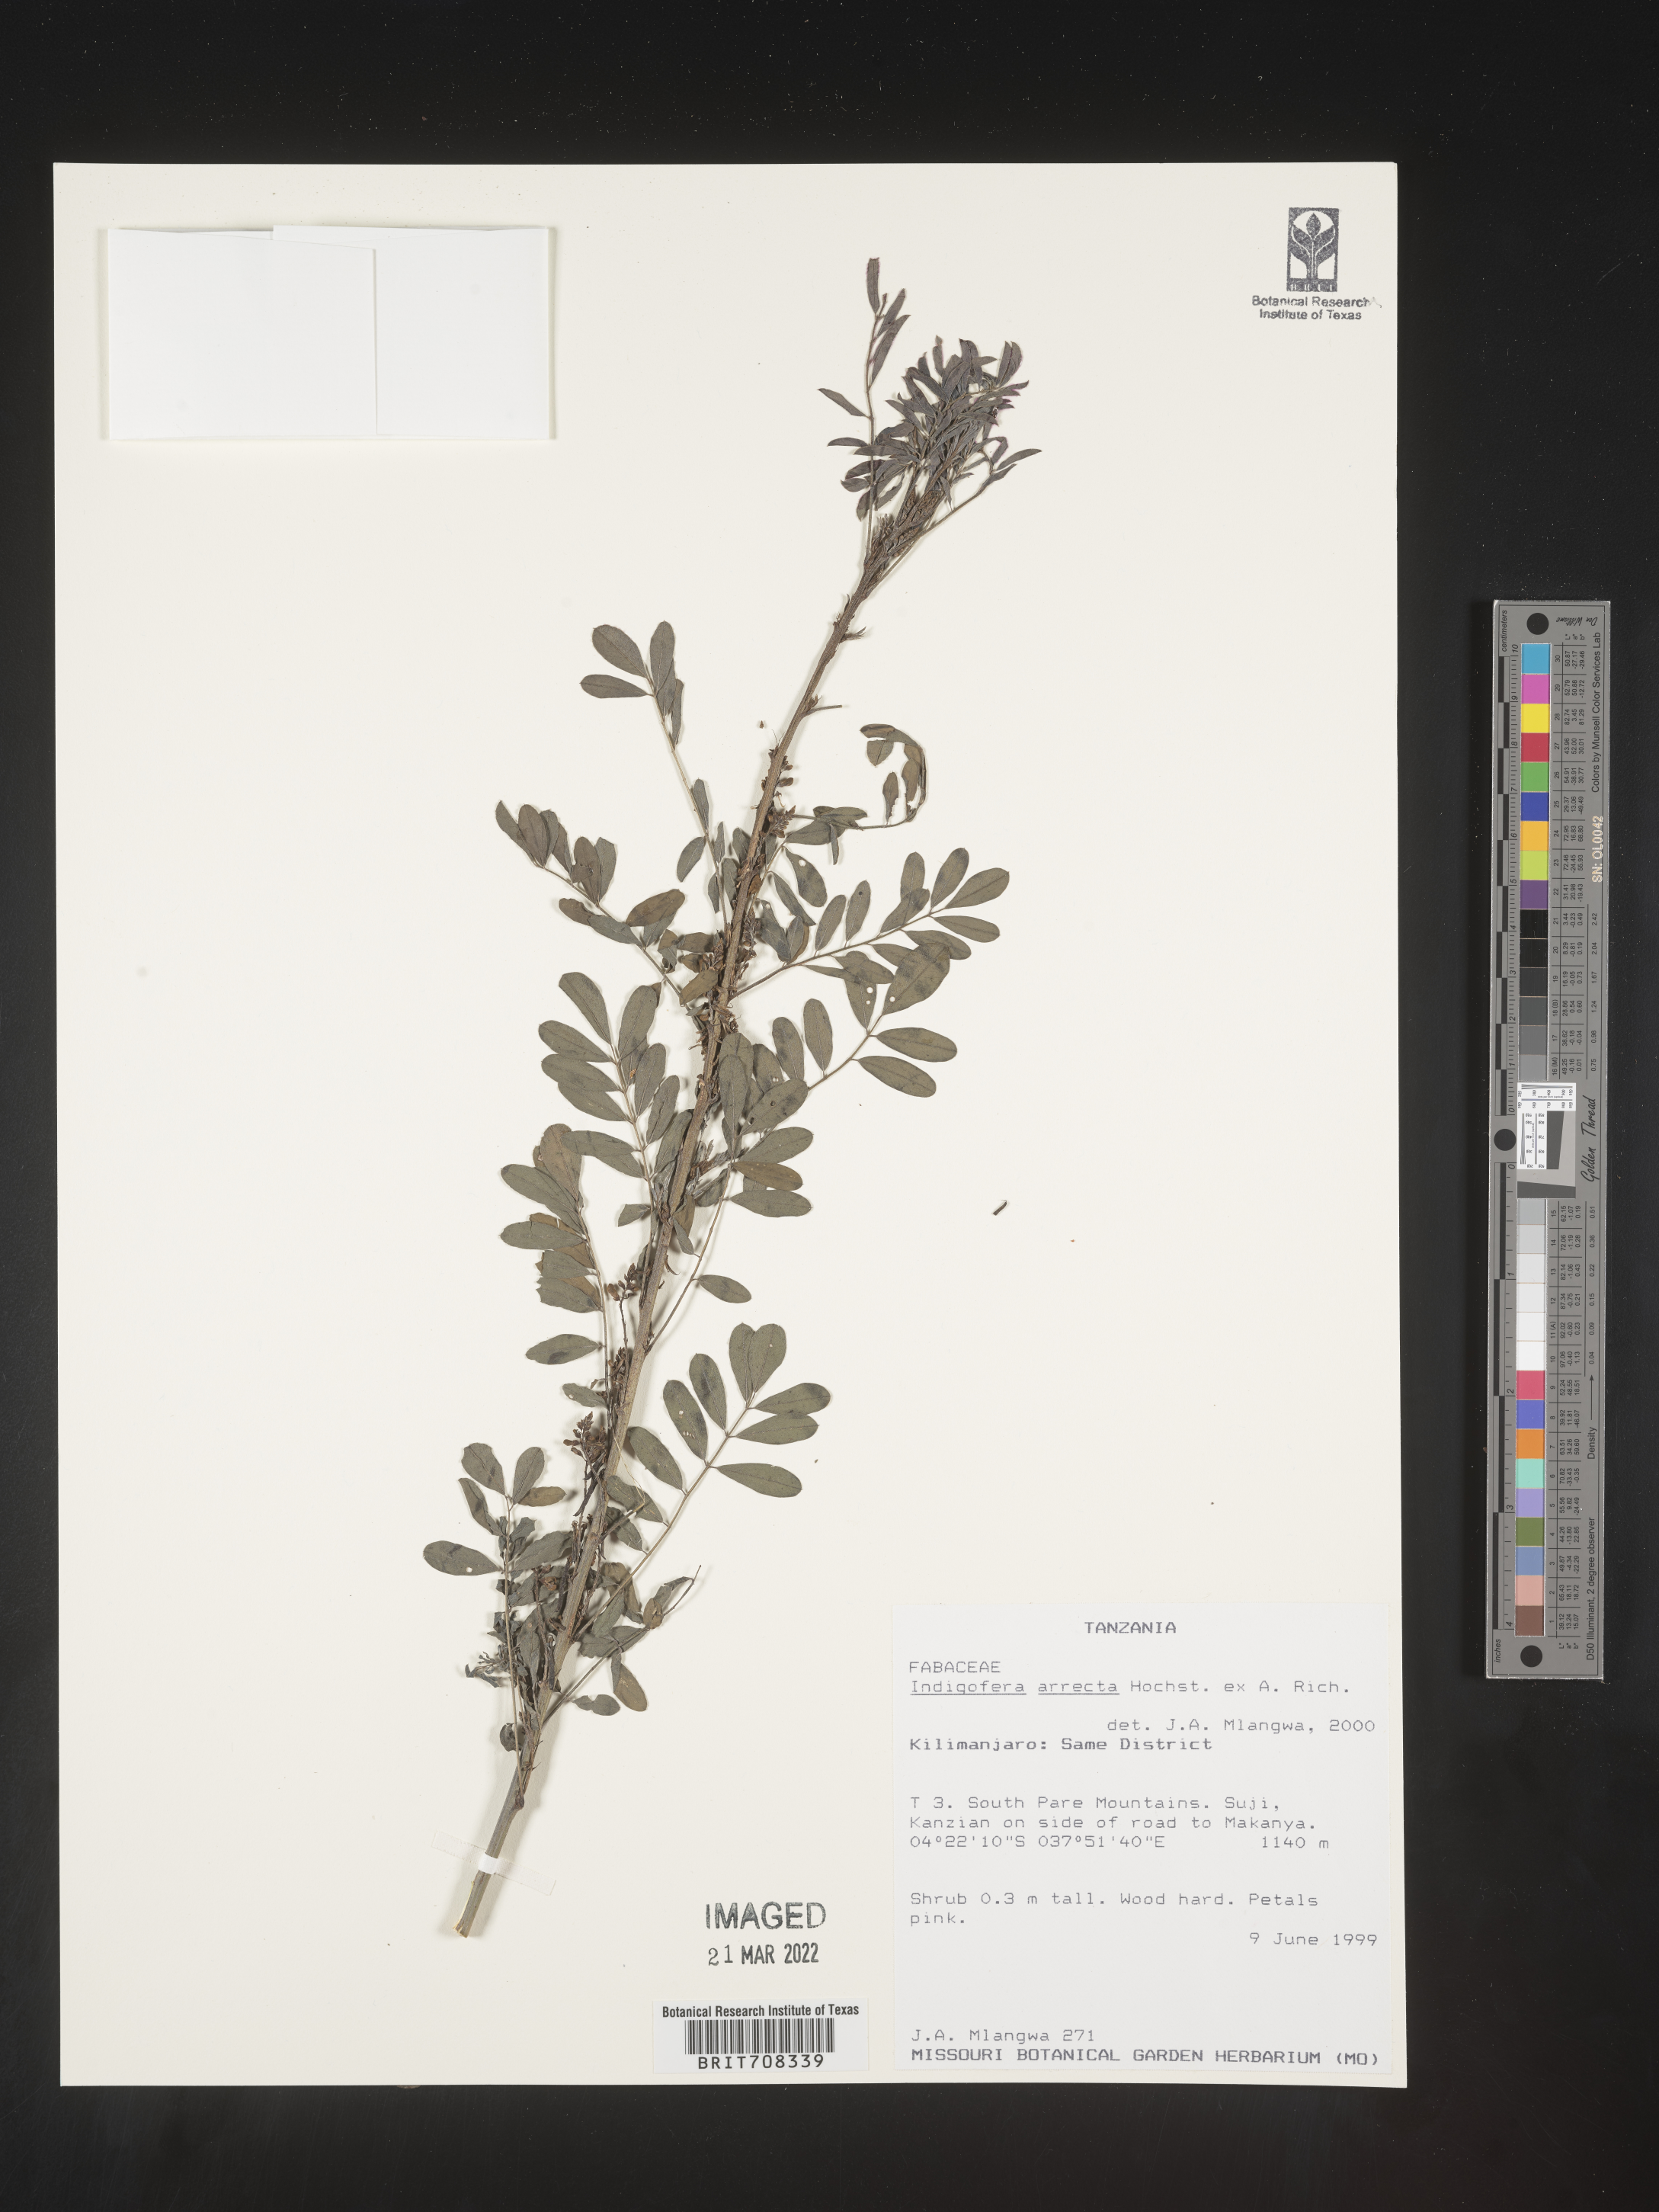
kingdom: Plantae
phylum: Tracheophyta
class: Magnoliopsida
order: Fabales
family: Fabaceae
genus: Indigofera
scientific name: Indigofera
